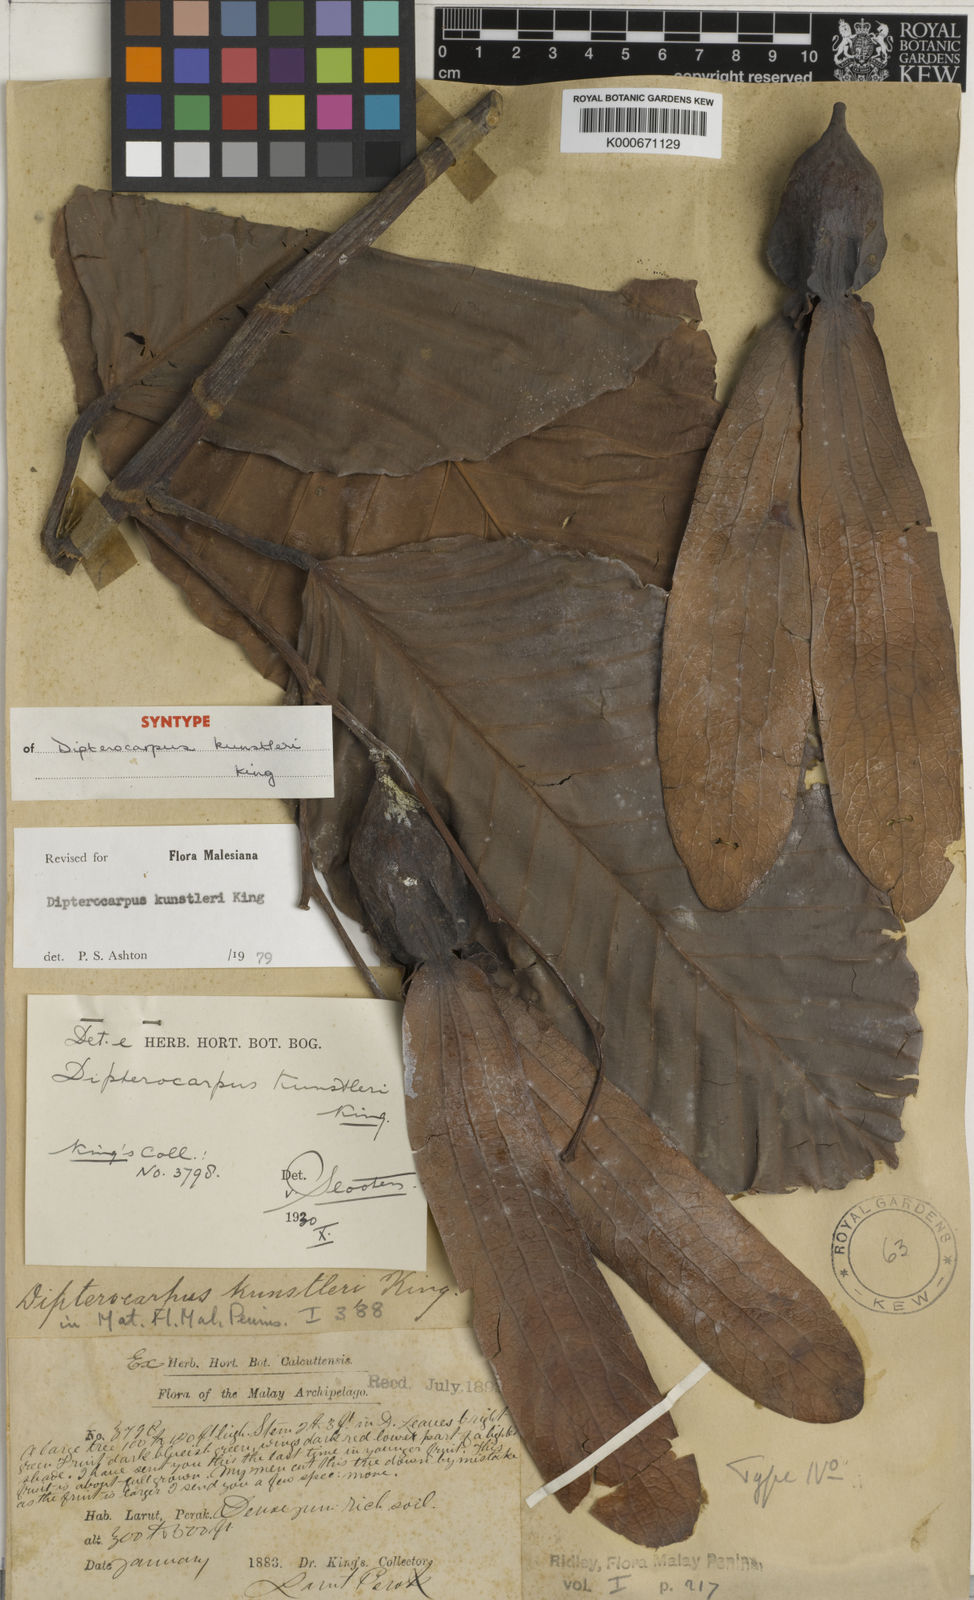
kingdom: Plantae
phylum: Tracheophyta
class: Magnoliopsida
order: Malvales
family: Dipterocarpaceae
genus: Dipterocarpus
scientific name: Dipterocarpus kunstleri
